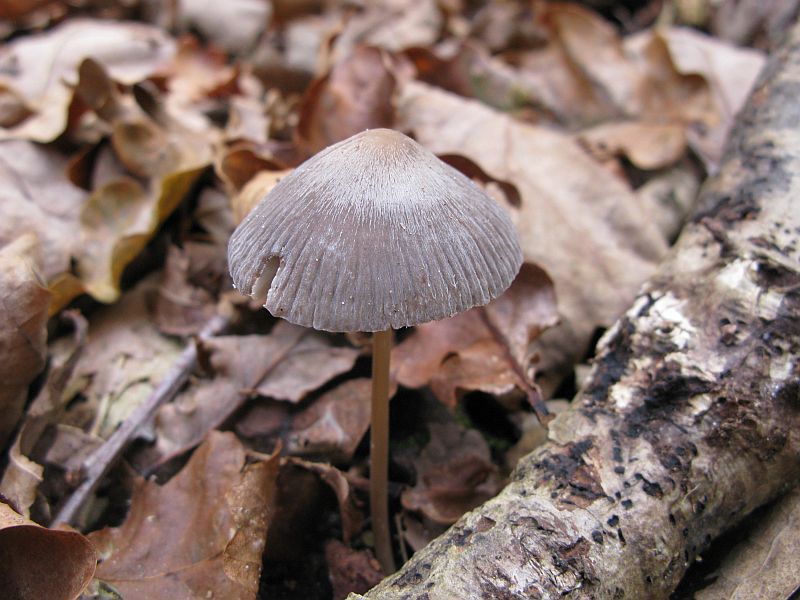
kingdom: Fungi
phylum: Basidiomycota
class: Agaricomycetes
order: Agaricales
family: Mycenaceae
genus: Mycena
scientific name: Mycena polygramma
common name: mangestribet huesvamp
